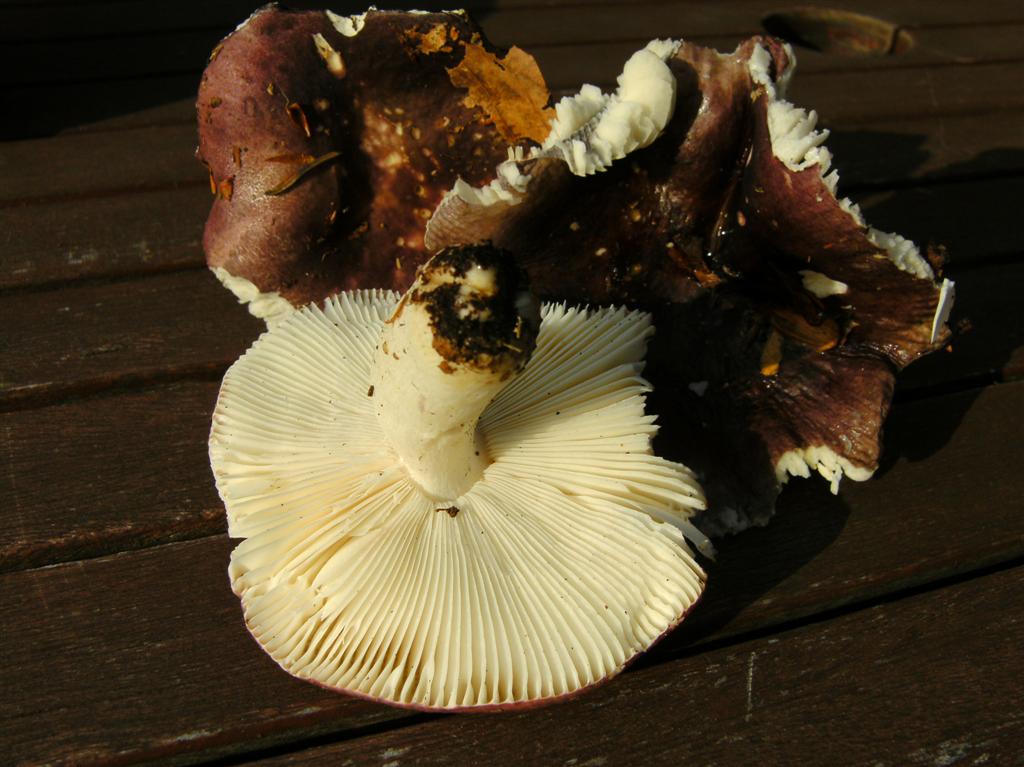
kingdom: Fungi
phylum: Basidiomycota
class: Agaricomycetes
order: Russulales
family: Russulaceae
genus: Russula
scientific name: Russula atropurpurea
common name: purpurbroget skørhat
